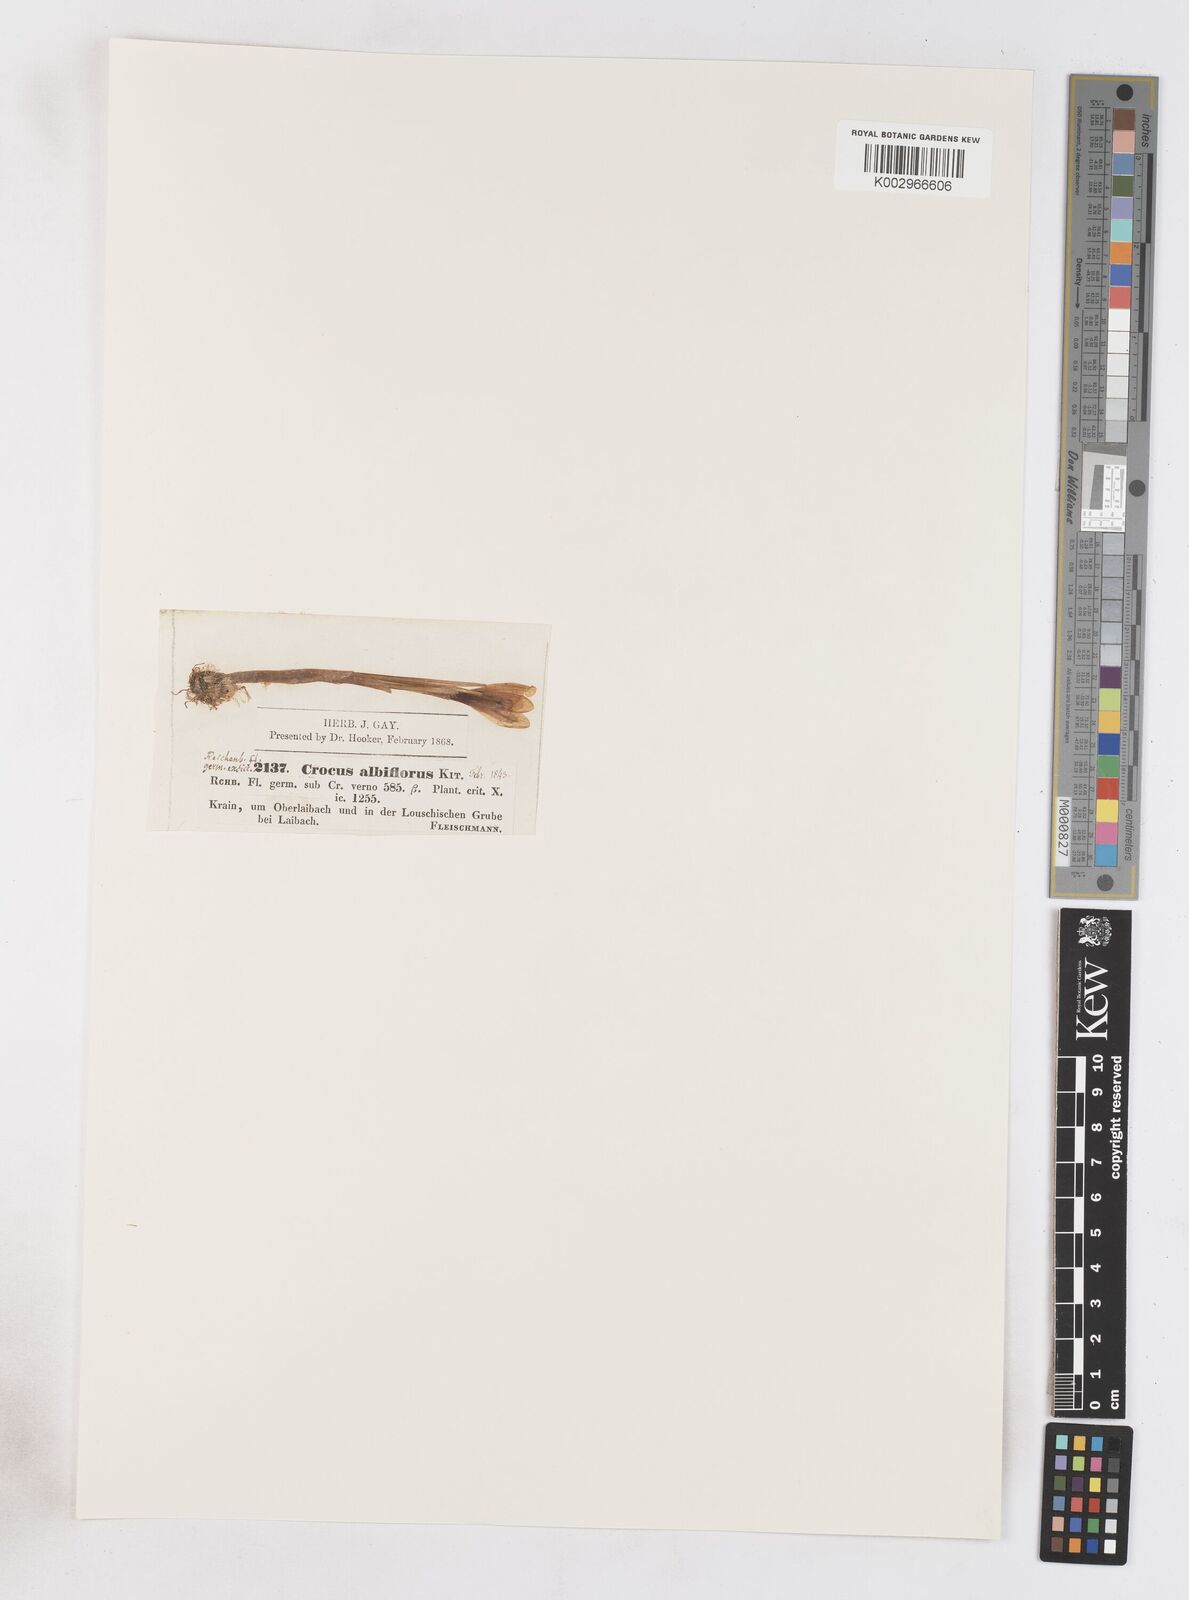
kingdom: Plantae
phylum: Tracheophyta
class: Liliopsida
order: Asparagales
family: Iridaceae
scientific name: Iridaceae
